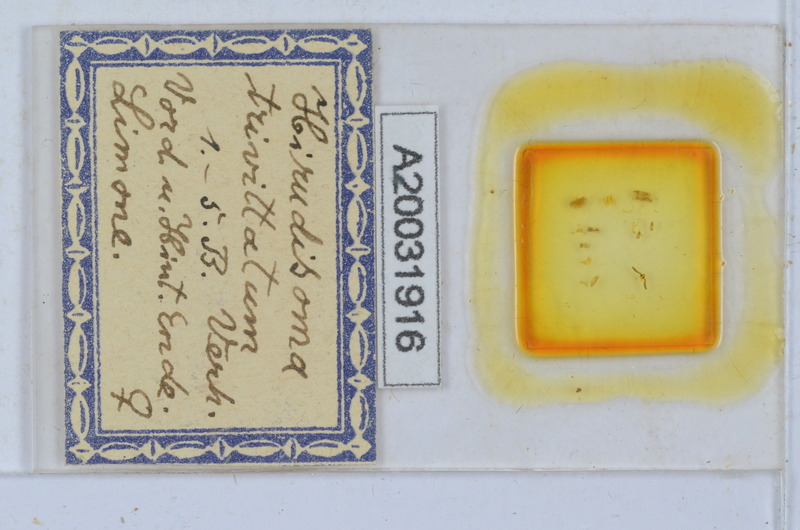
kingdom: Animalia
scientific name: Animalia
